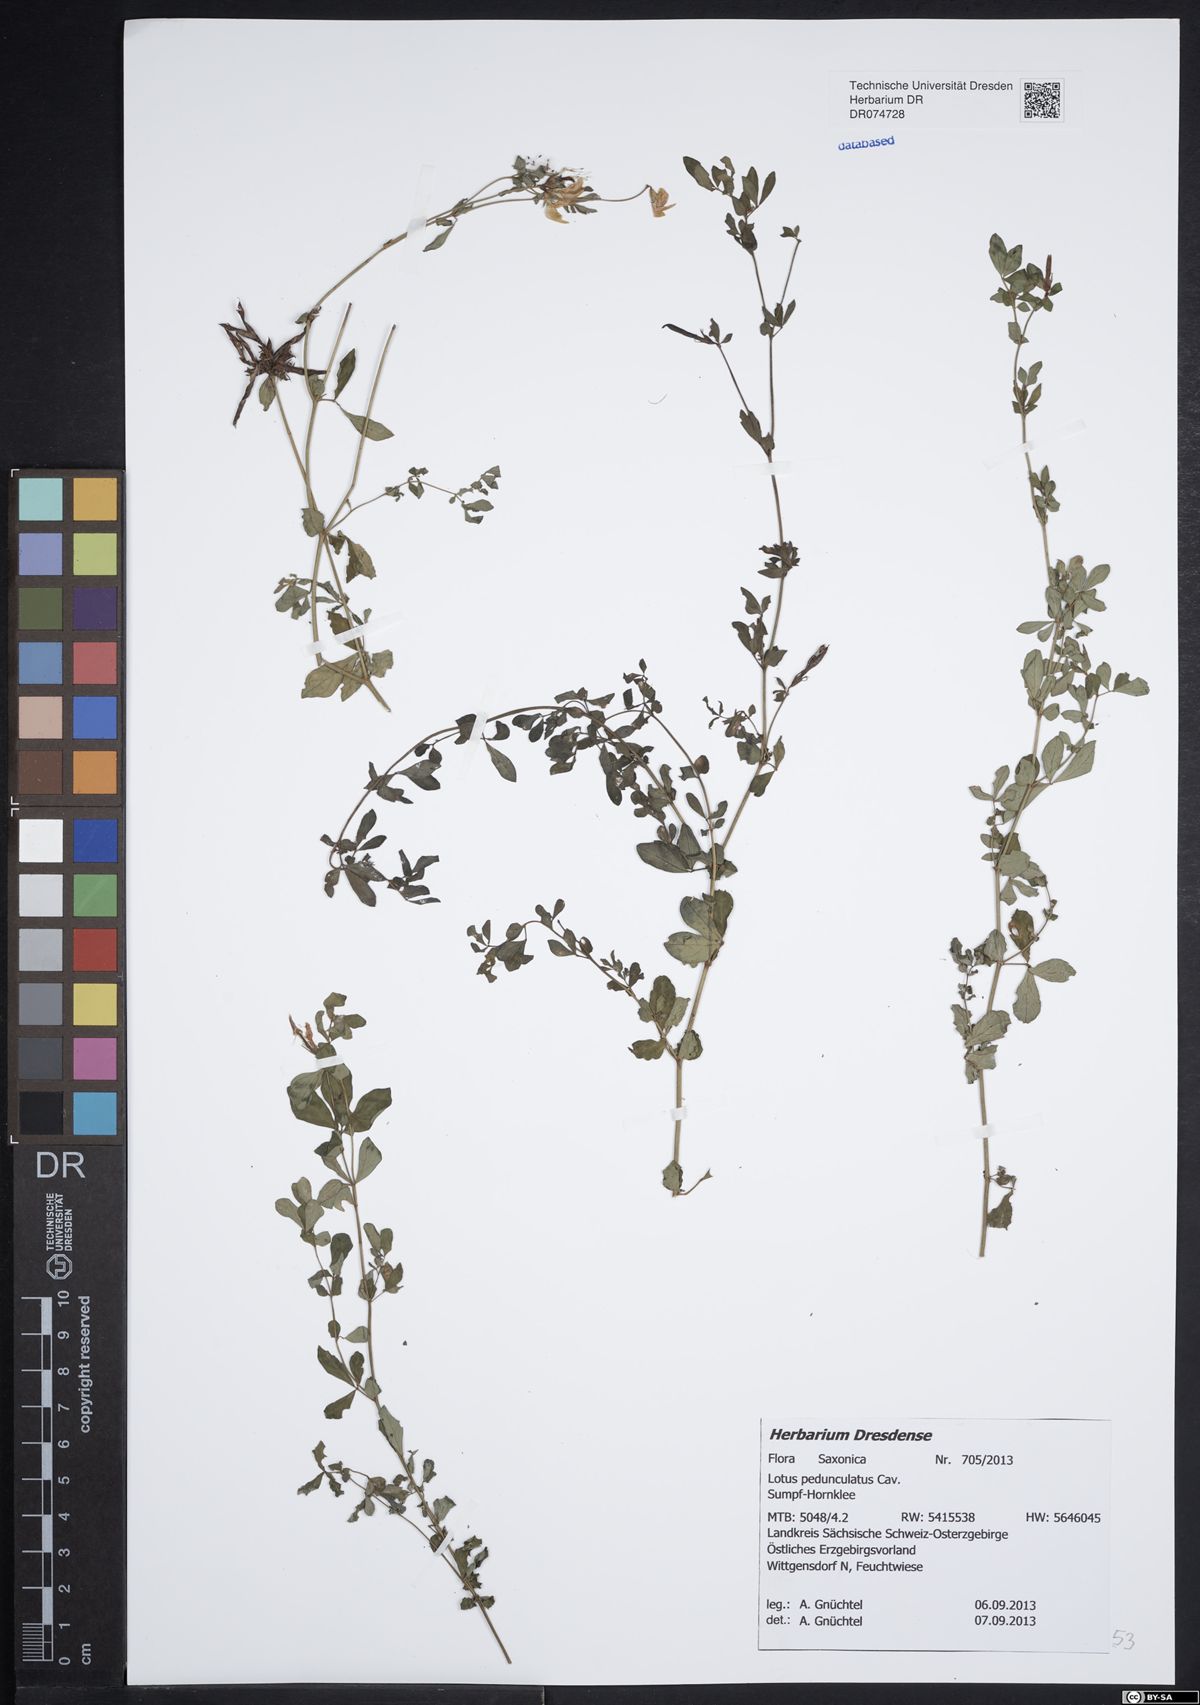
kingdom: Plantae
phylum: Tracheophyta
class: Magnoliopsida
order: Fabales
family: Fabaceae
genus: Lotus
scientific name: Lotus pedunculatus
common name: Greater birdsfoot-trefoil
